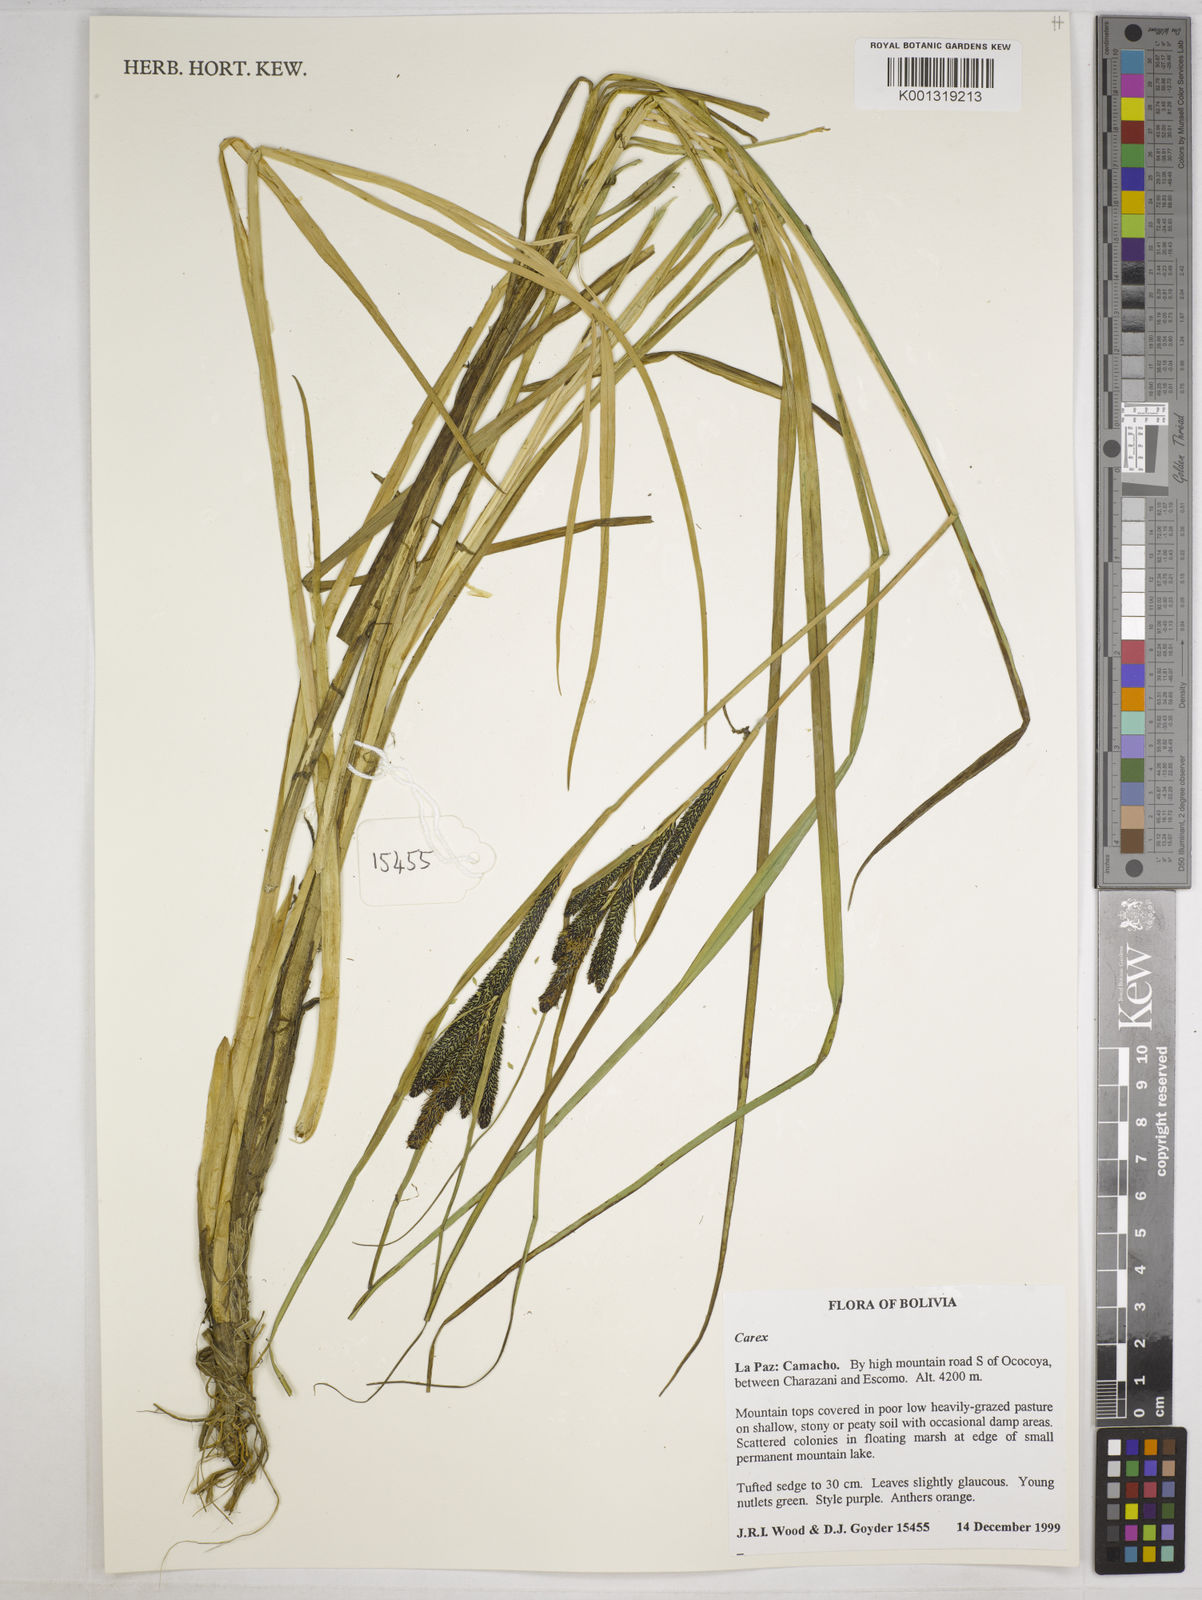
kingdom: Plantae
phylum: Tracheophyta
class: Liliopsida
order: Poales
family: Cyperaceae
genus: Carex
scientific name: Carex enneastachya
